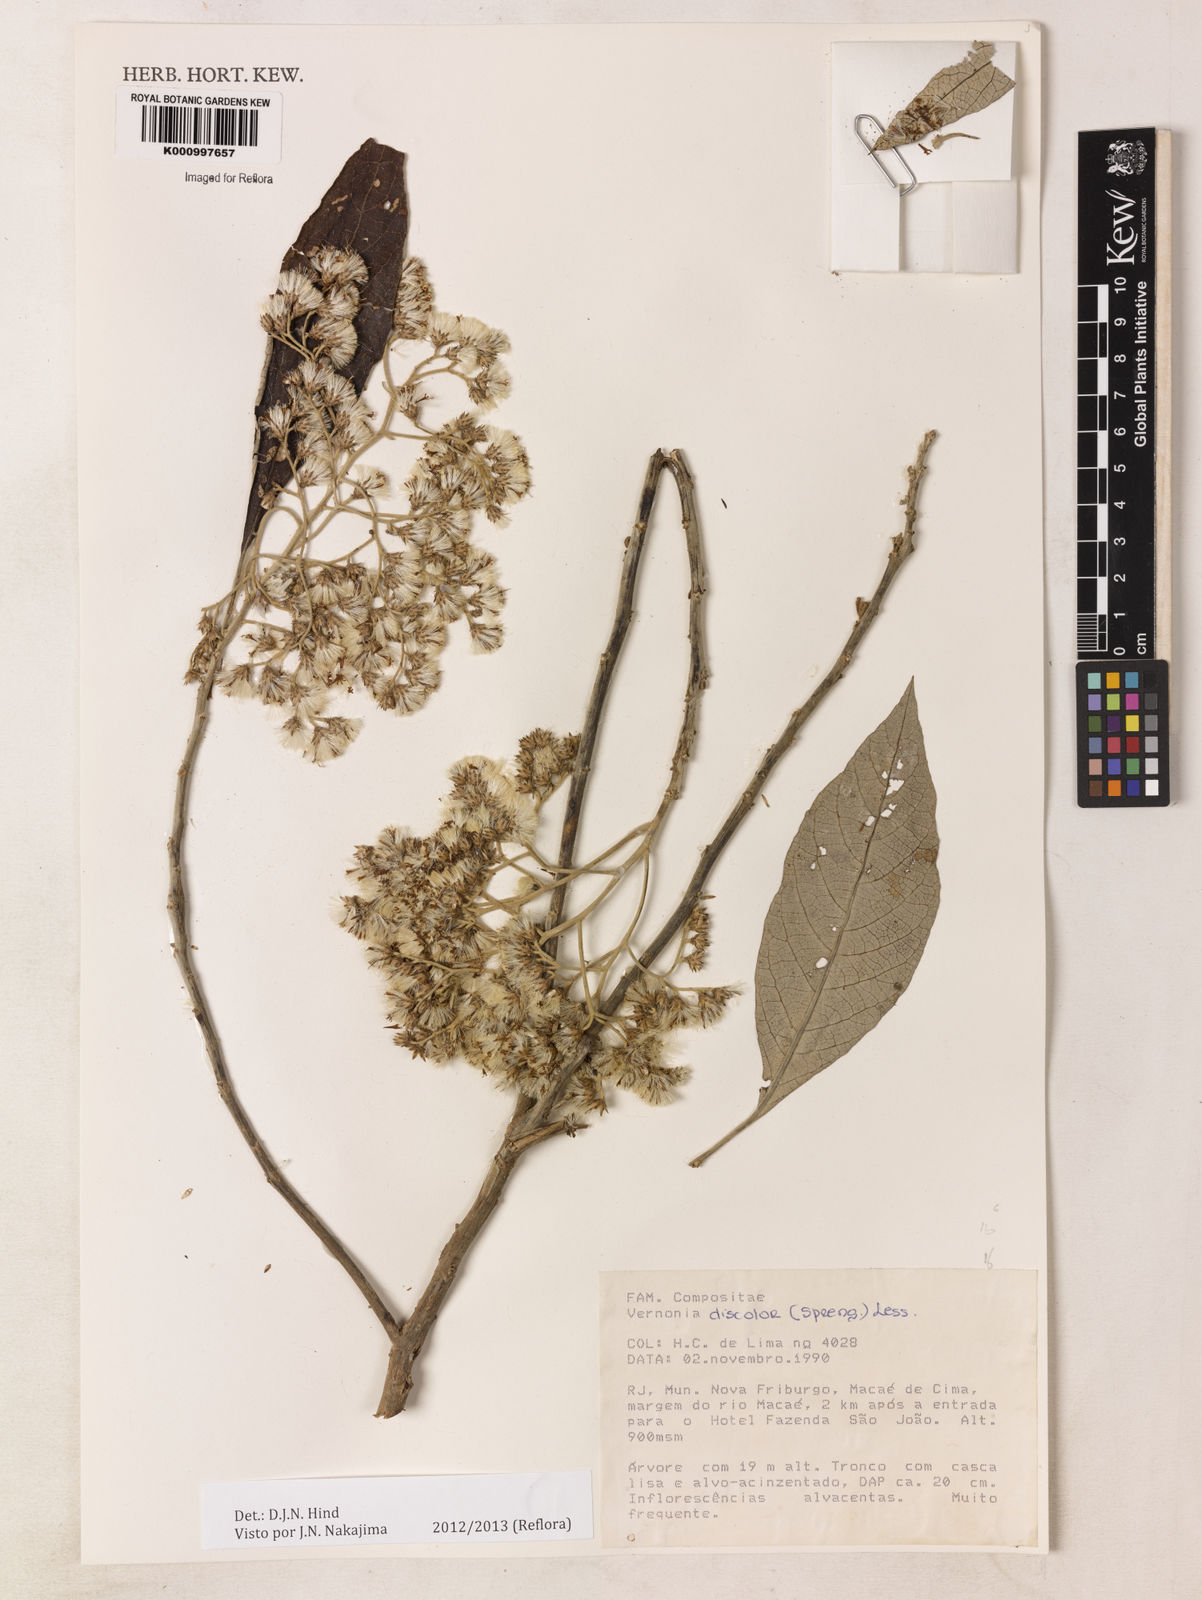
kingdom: Plantae
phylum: Tracheophyta
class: Magnoliopsida
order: Asterales
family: Asteraceae
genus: Vernonanthura
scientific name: Vernonanthura discolor
